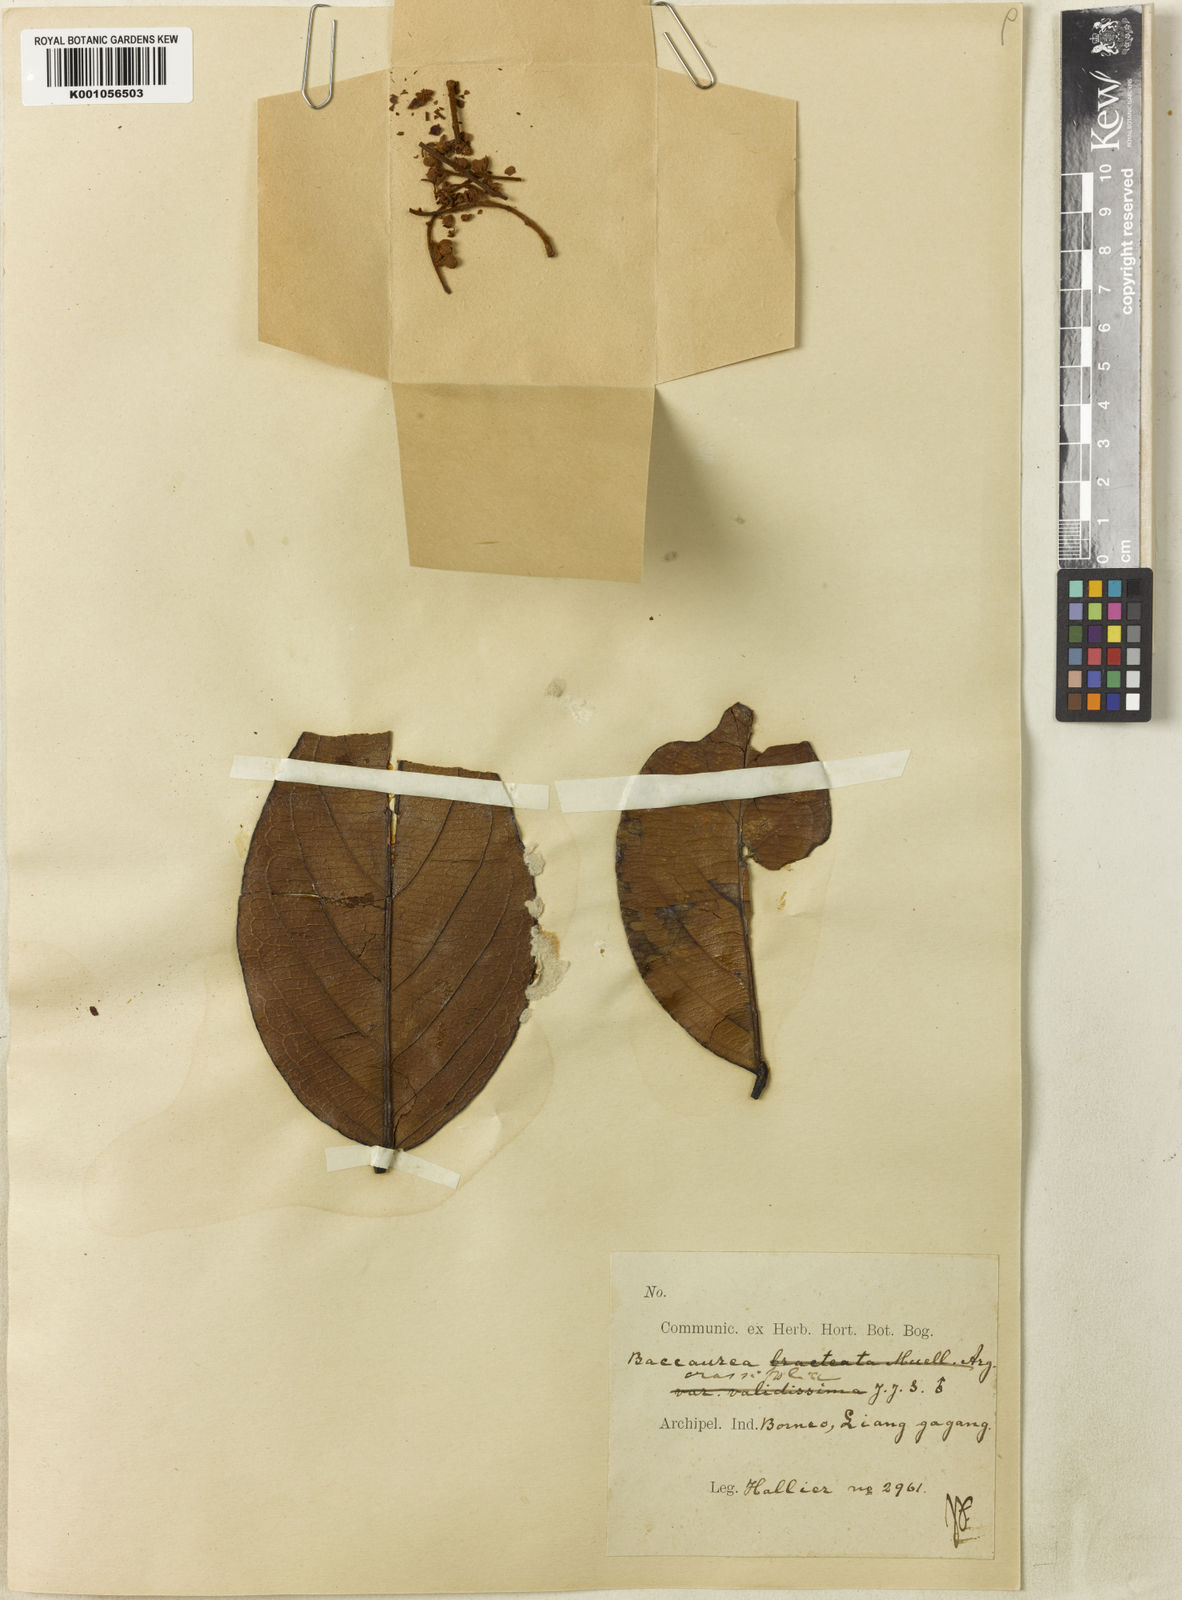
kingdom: Plantae
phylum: Tracheophyta
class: Magnoliopsida
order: Malpighiales
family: Phyllanthaceae
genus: Baccaurea
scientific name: Baccaurea
